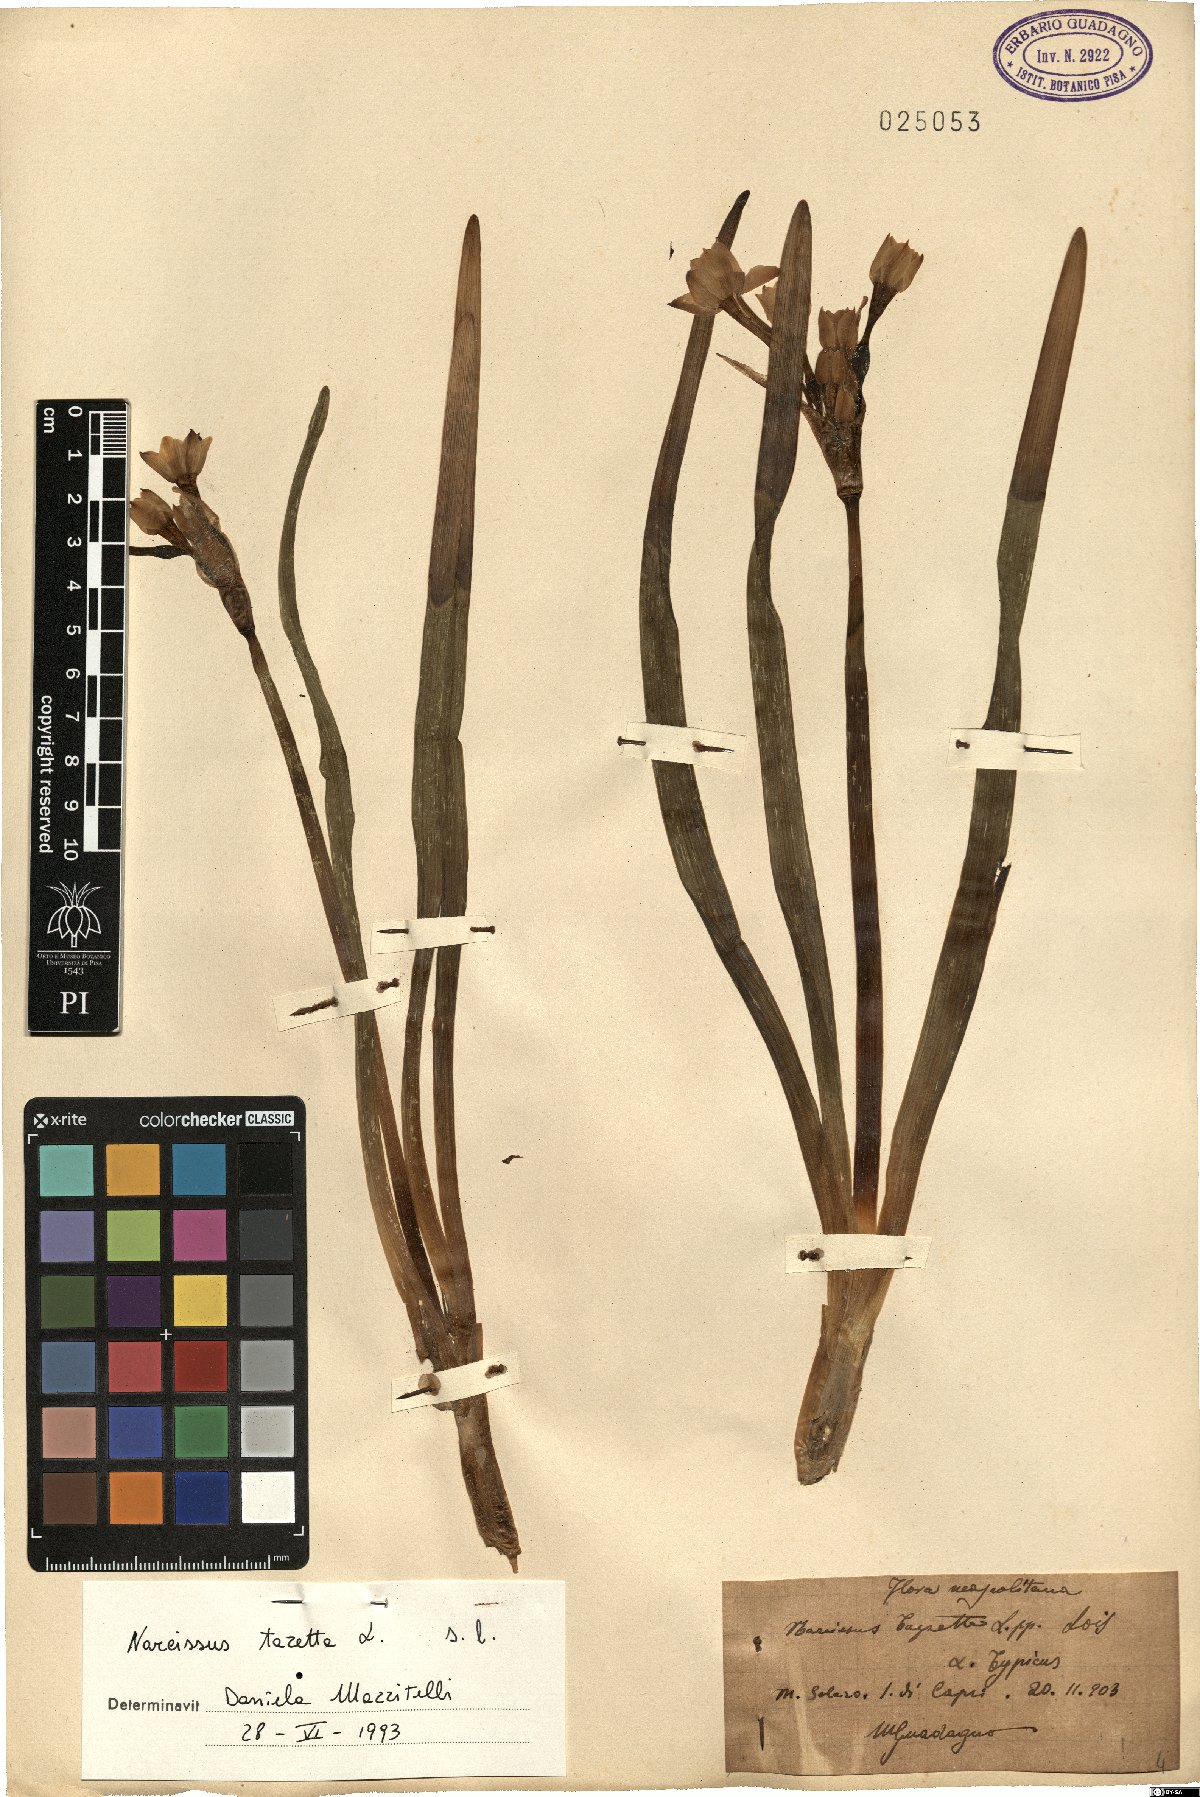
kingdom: Plantae
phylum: Tracheophyta
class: Liliopsida
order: Asparagales
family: Amaryllidaceae
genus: Narcissus
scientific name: Narcissus tazetta
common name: Bunch-flowered daffodil
